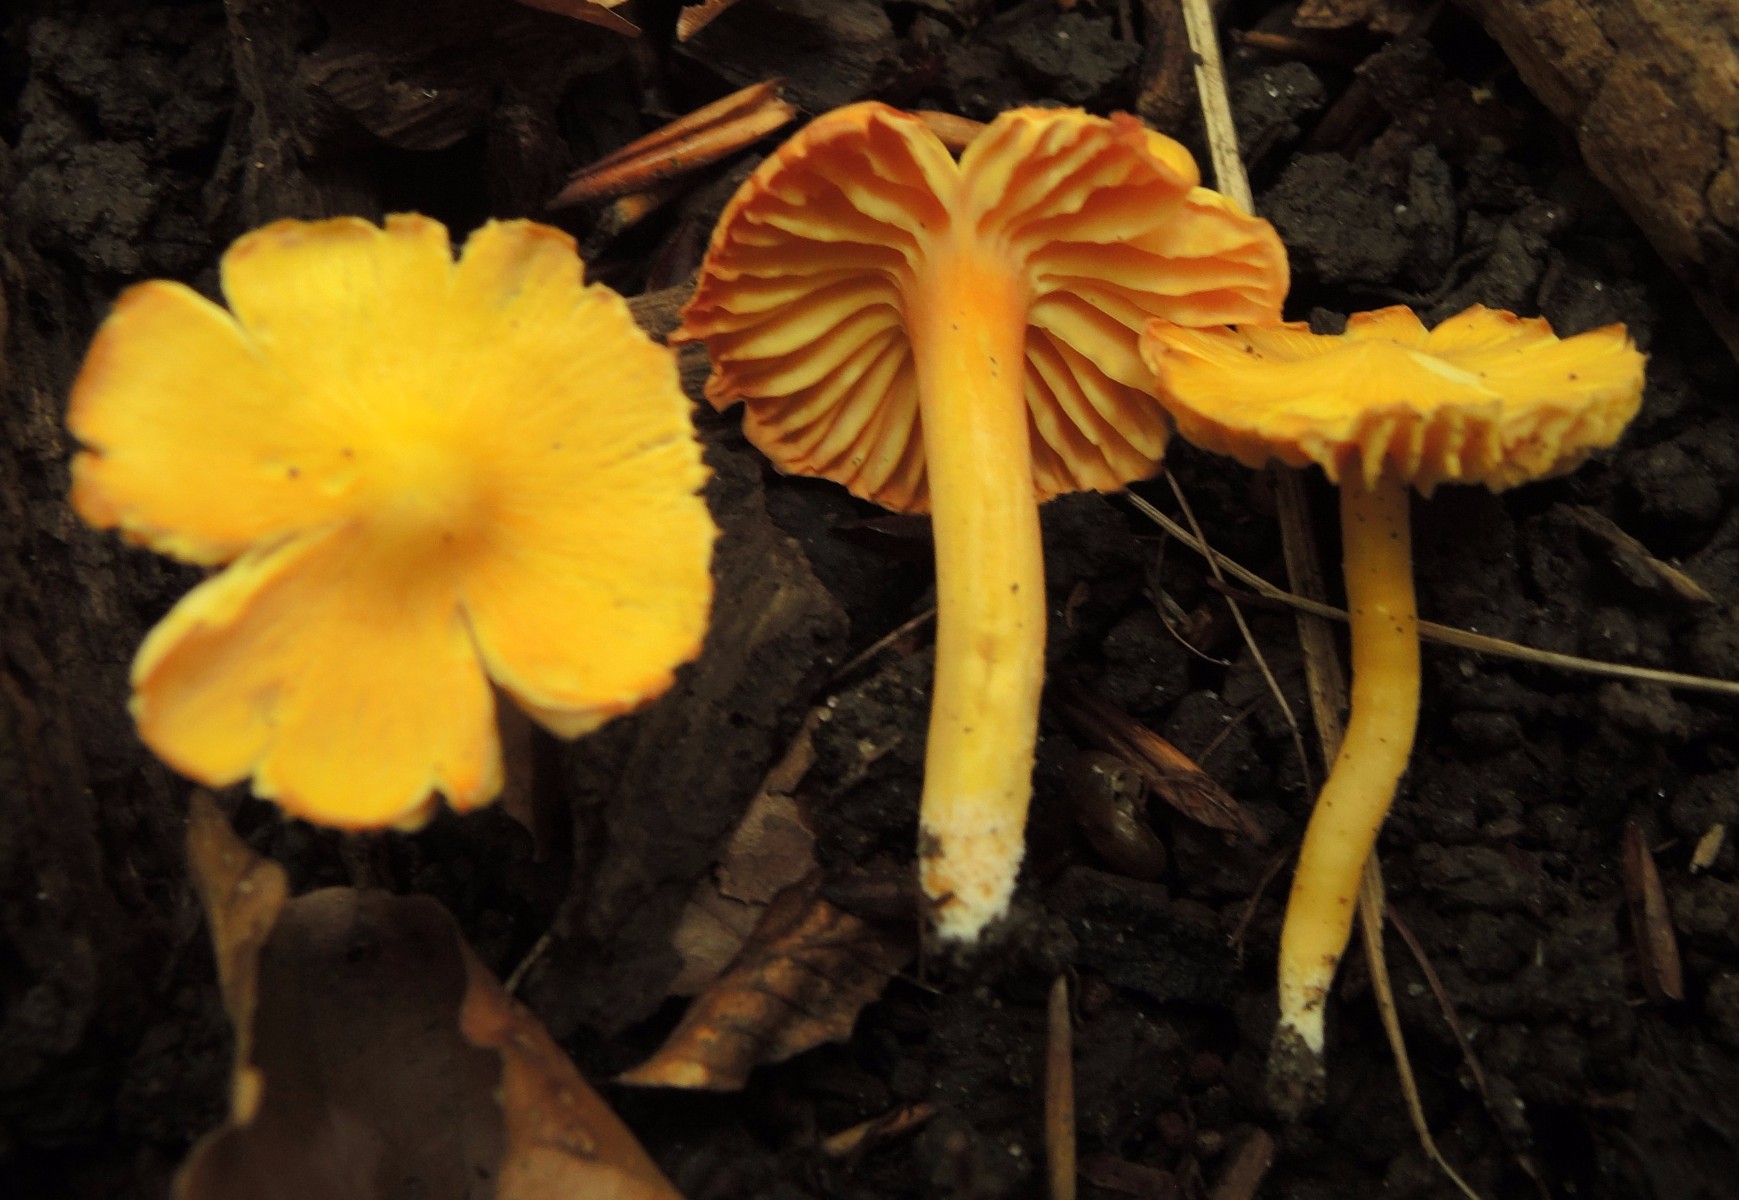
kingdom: Fungi
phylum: Basidiomycota
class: Agaricomycetes
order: Agaricales
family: Hygrophoraceae
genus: Hygrocybe
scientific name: Hygrocybe ceracea
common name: voksgul vokshat
